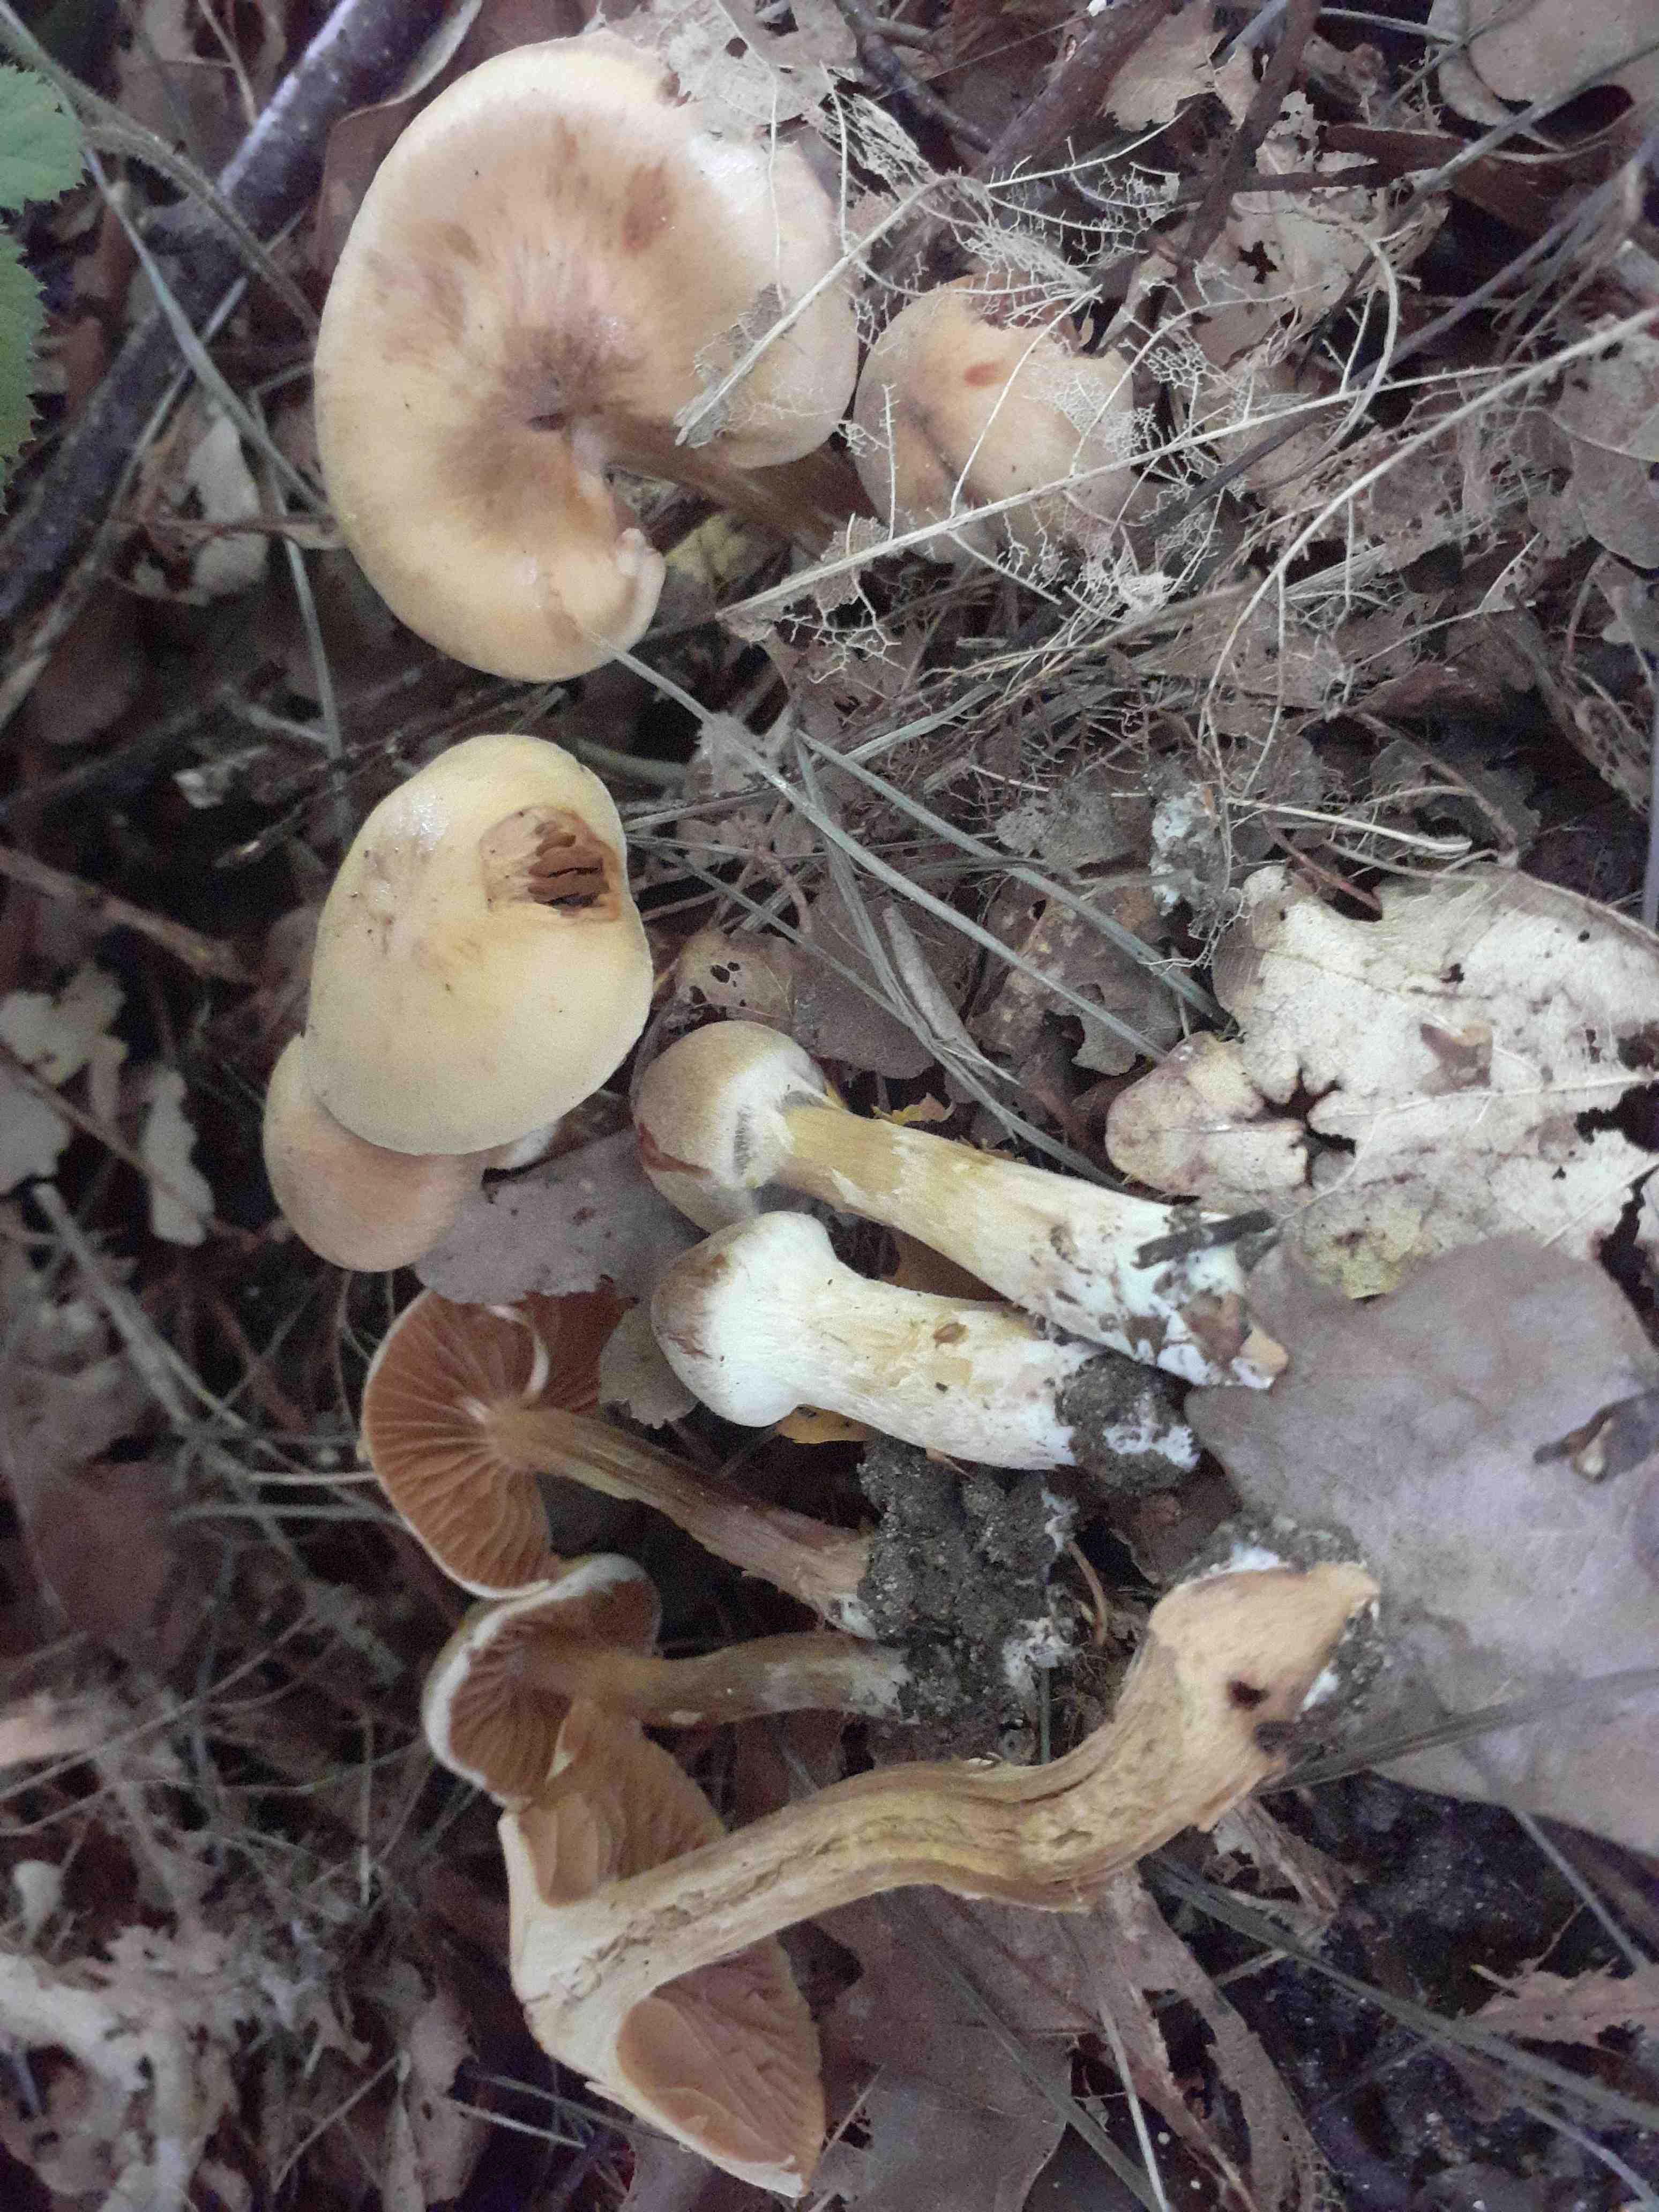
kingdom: Fungi
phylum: Basidiomycota
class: Agaricomycetes
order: Agaricales
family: Cortinariaceae
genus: Cortinarius
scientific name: Cortinarius luridus
